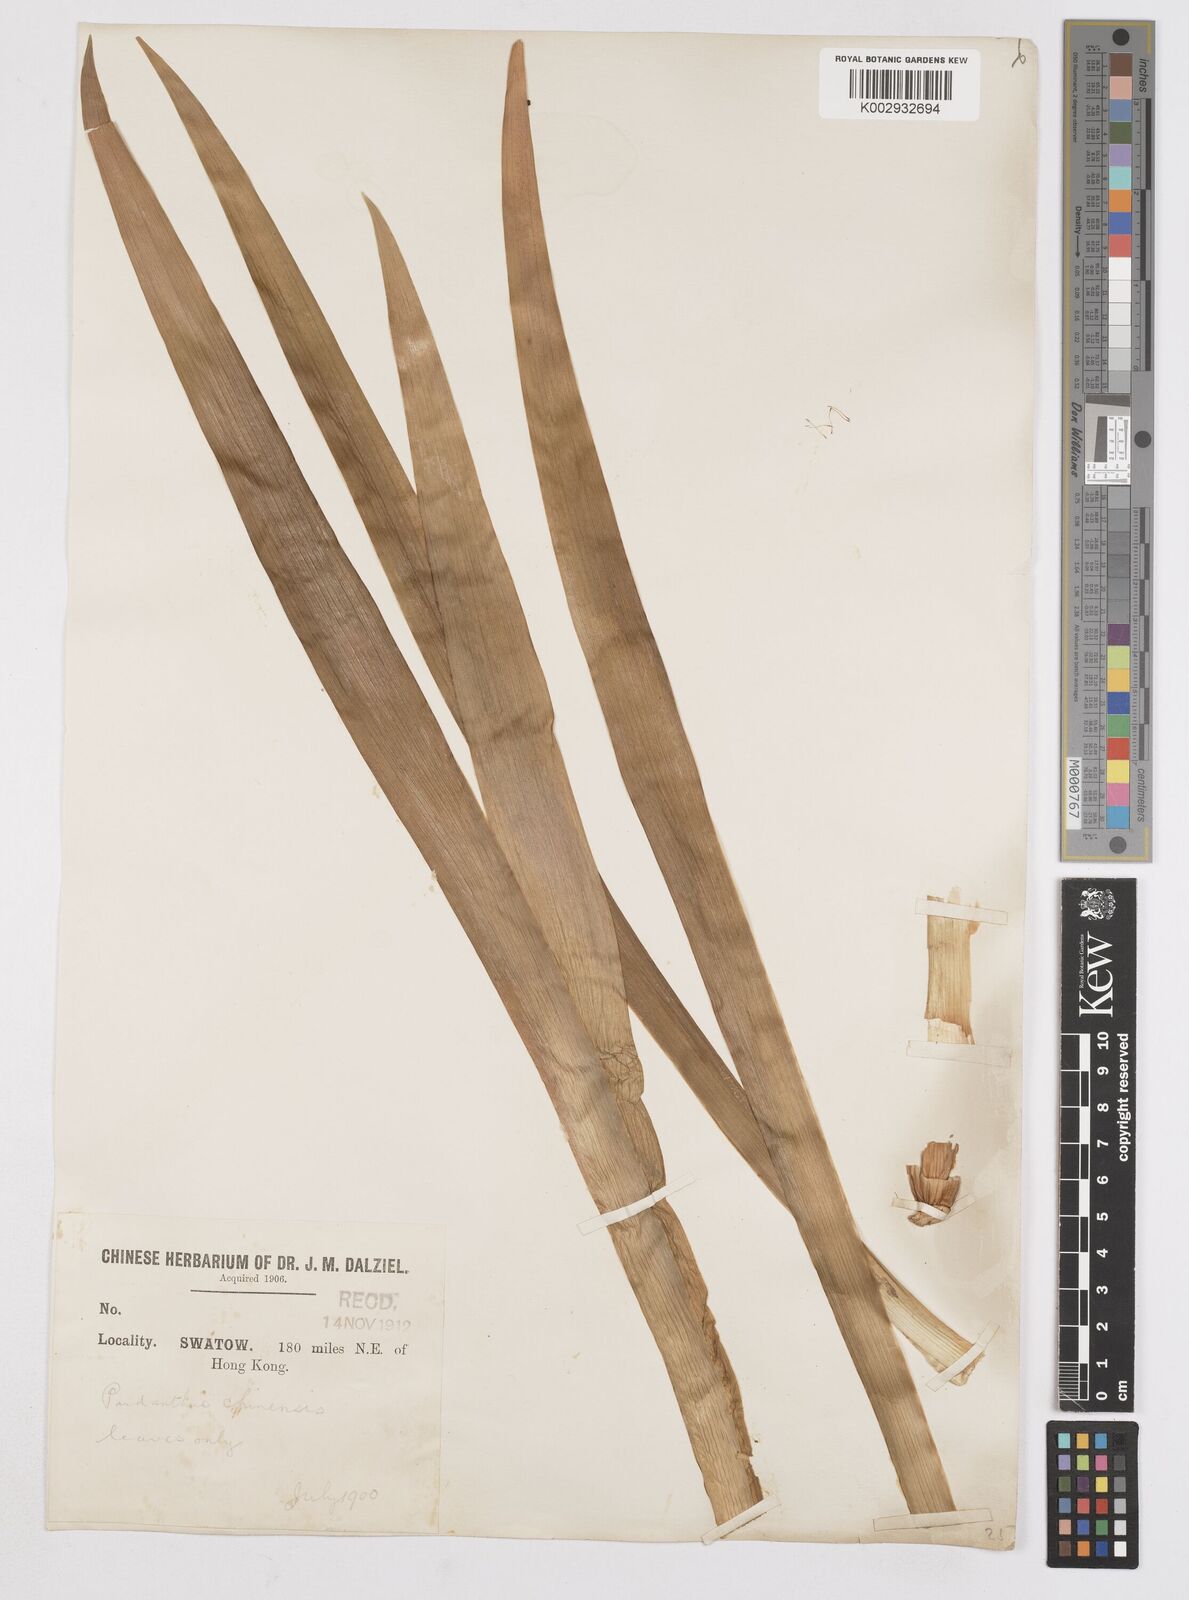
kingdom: Plantae
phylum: Tracheophyta
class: Liliopsida
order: Asparagales
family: Iridaceae
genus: Iris
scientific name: Iris
